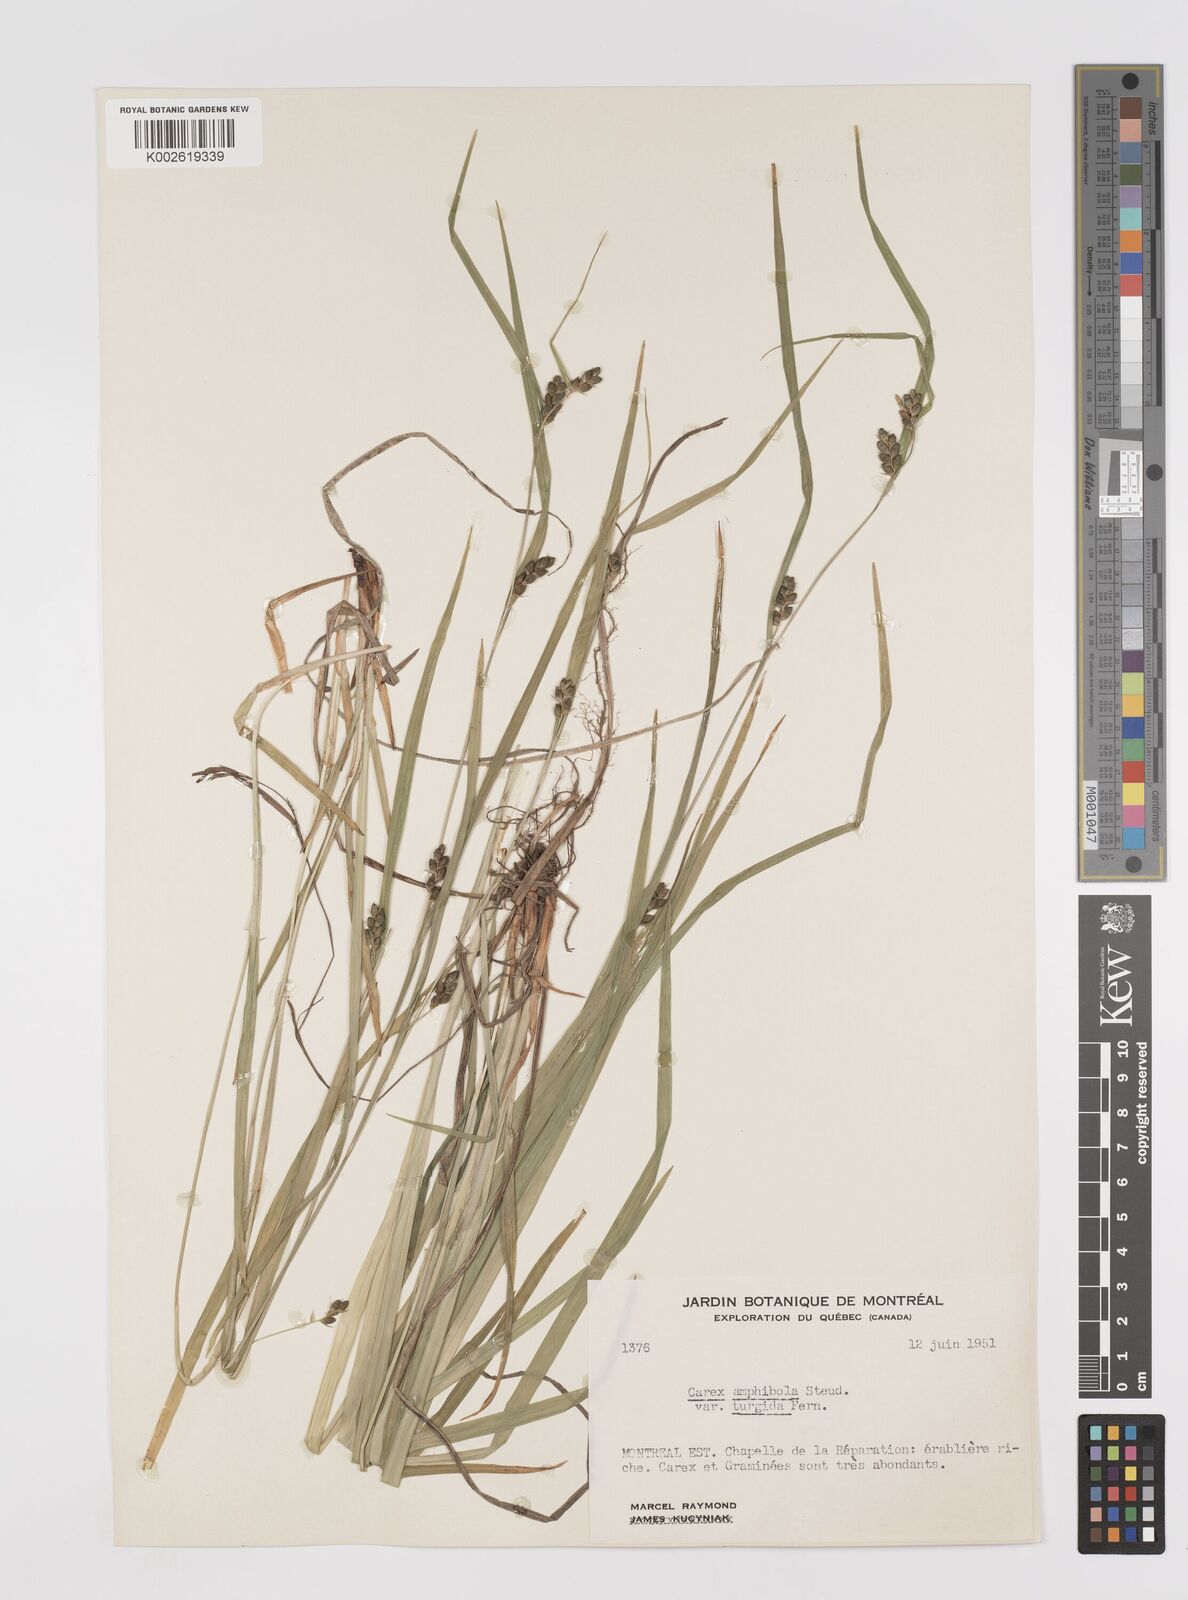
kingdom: Plantae
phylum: Tracheophyta
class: Liliopsida
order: Poales
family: Cyperaceae
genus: Carex
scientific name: Carex amphibola
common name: Amphibious sedge
